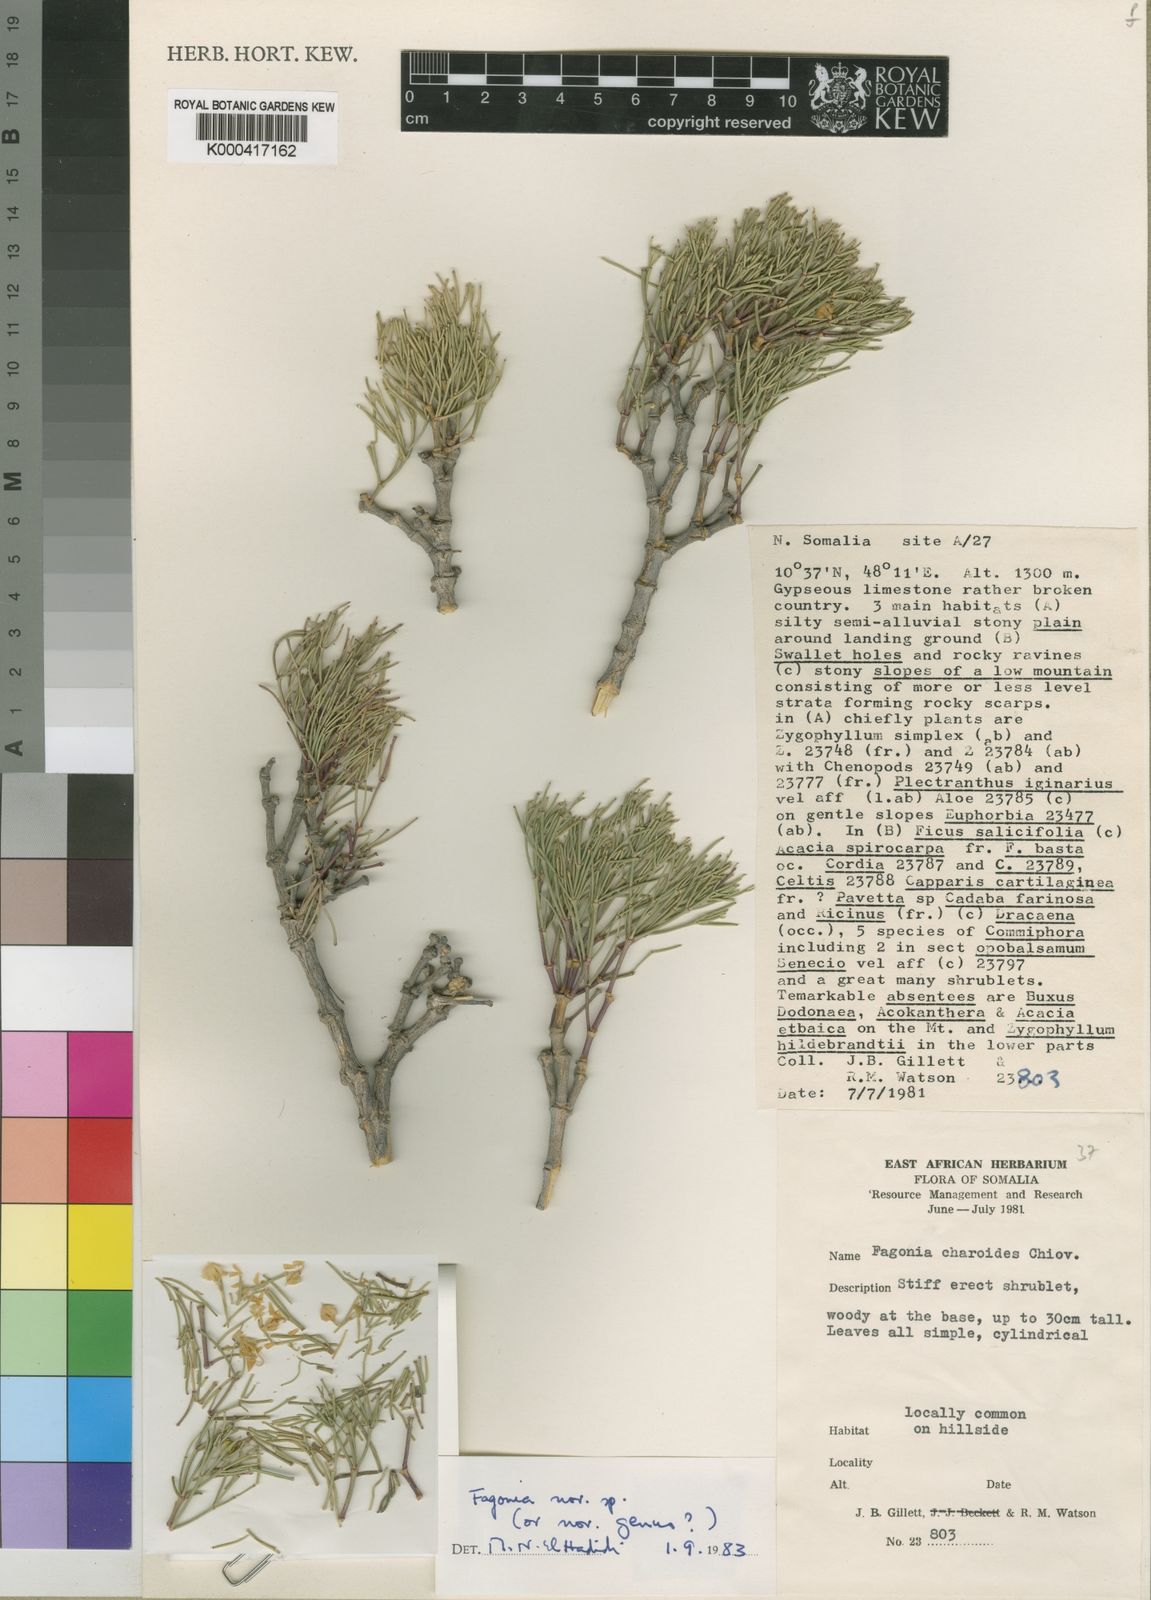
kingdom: Plantae
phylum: Tracheophyta
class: Magnoliopsida
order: Zygophyllales
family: Zygophyllaceae
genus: Fagonia
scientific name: Fagonia
